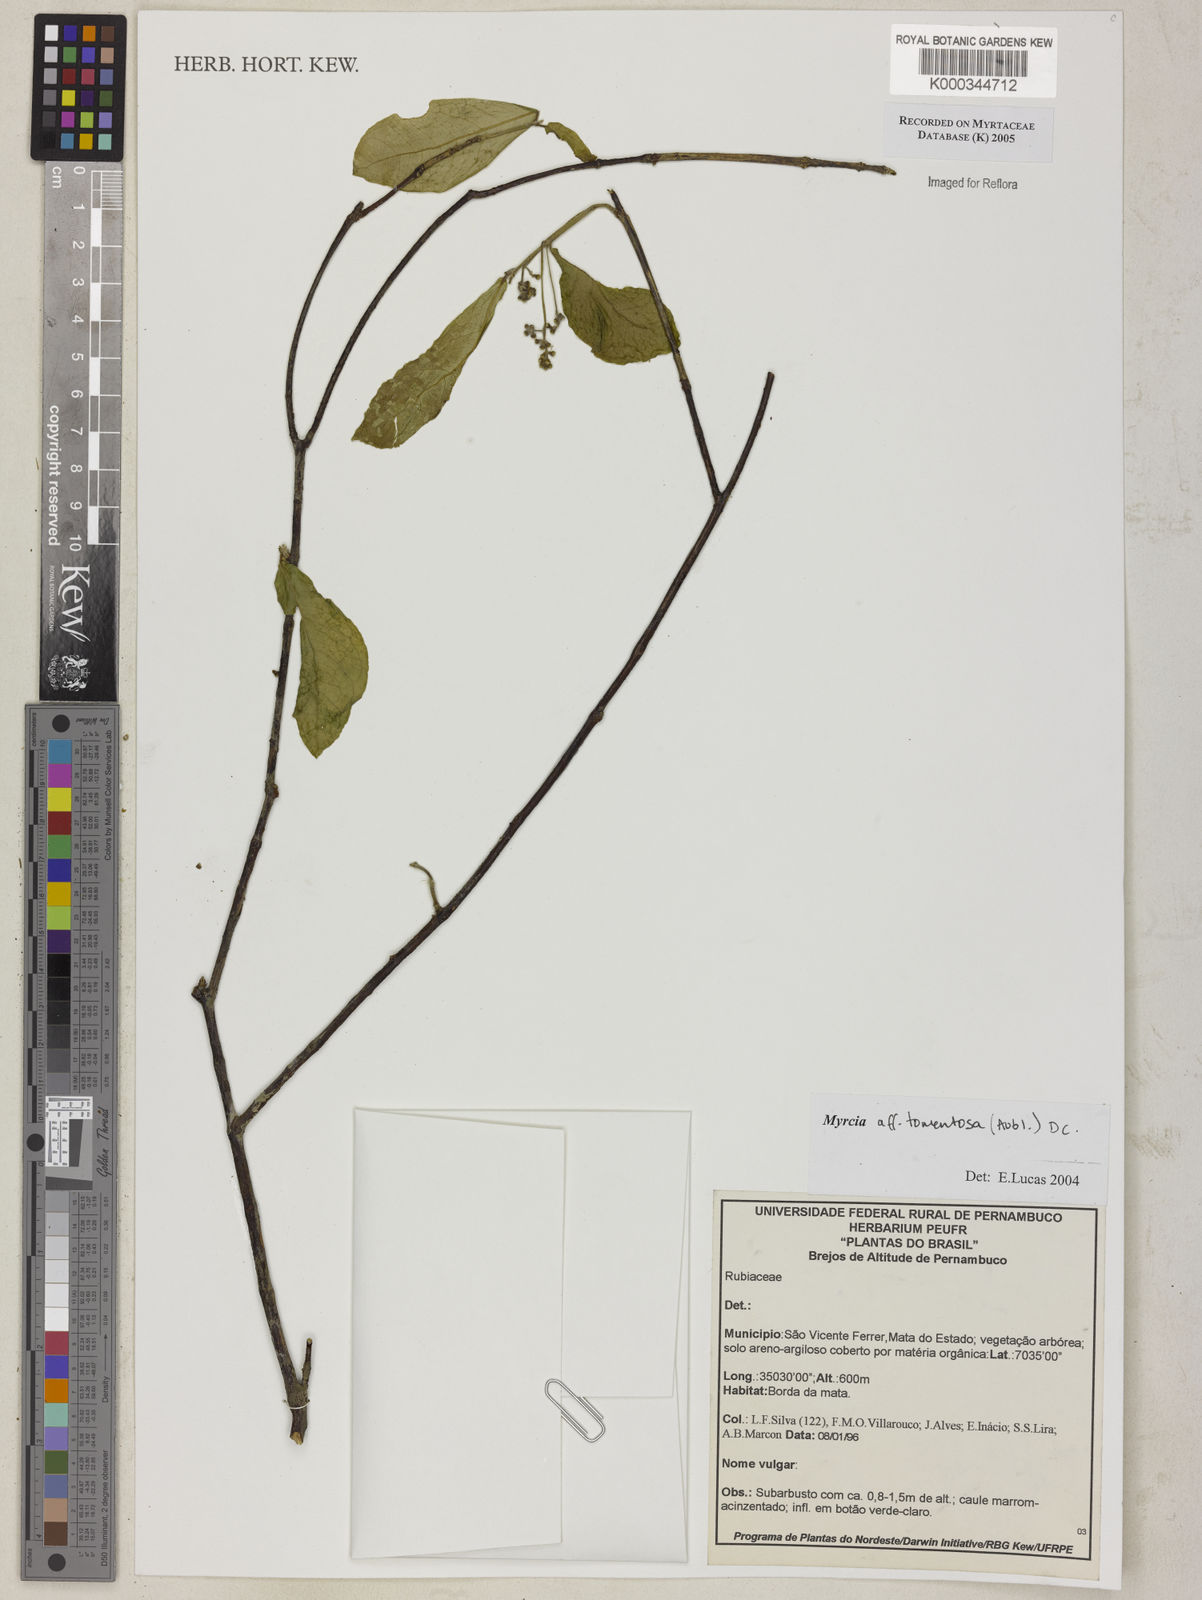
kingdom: Plantae
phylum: Tracheophyta
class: Magnoliopsida
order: Myrtales
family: Myrtaceae
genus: Myrcia
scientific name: Myrcia tomentosa
